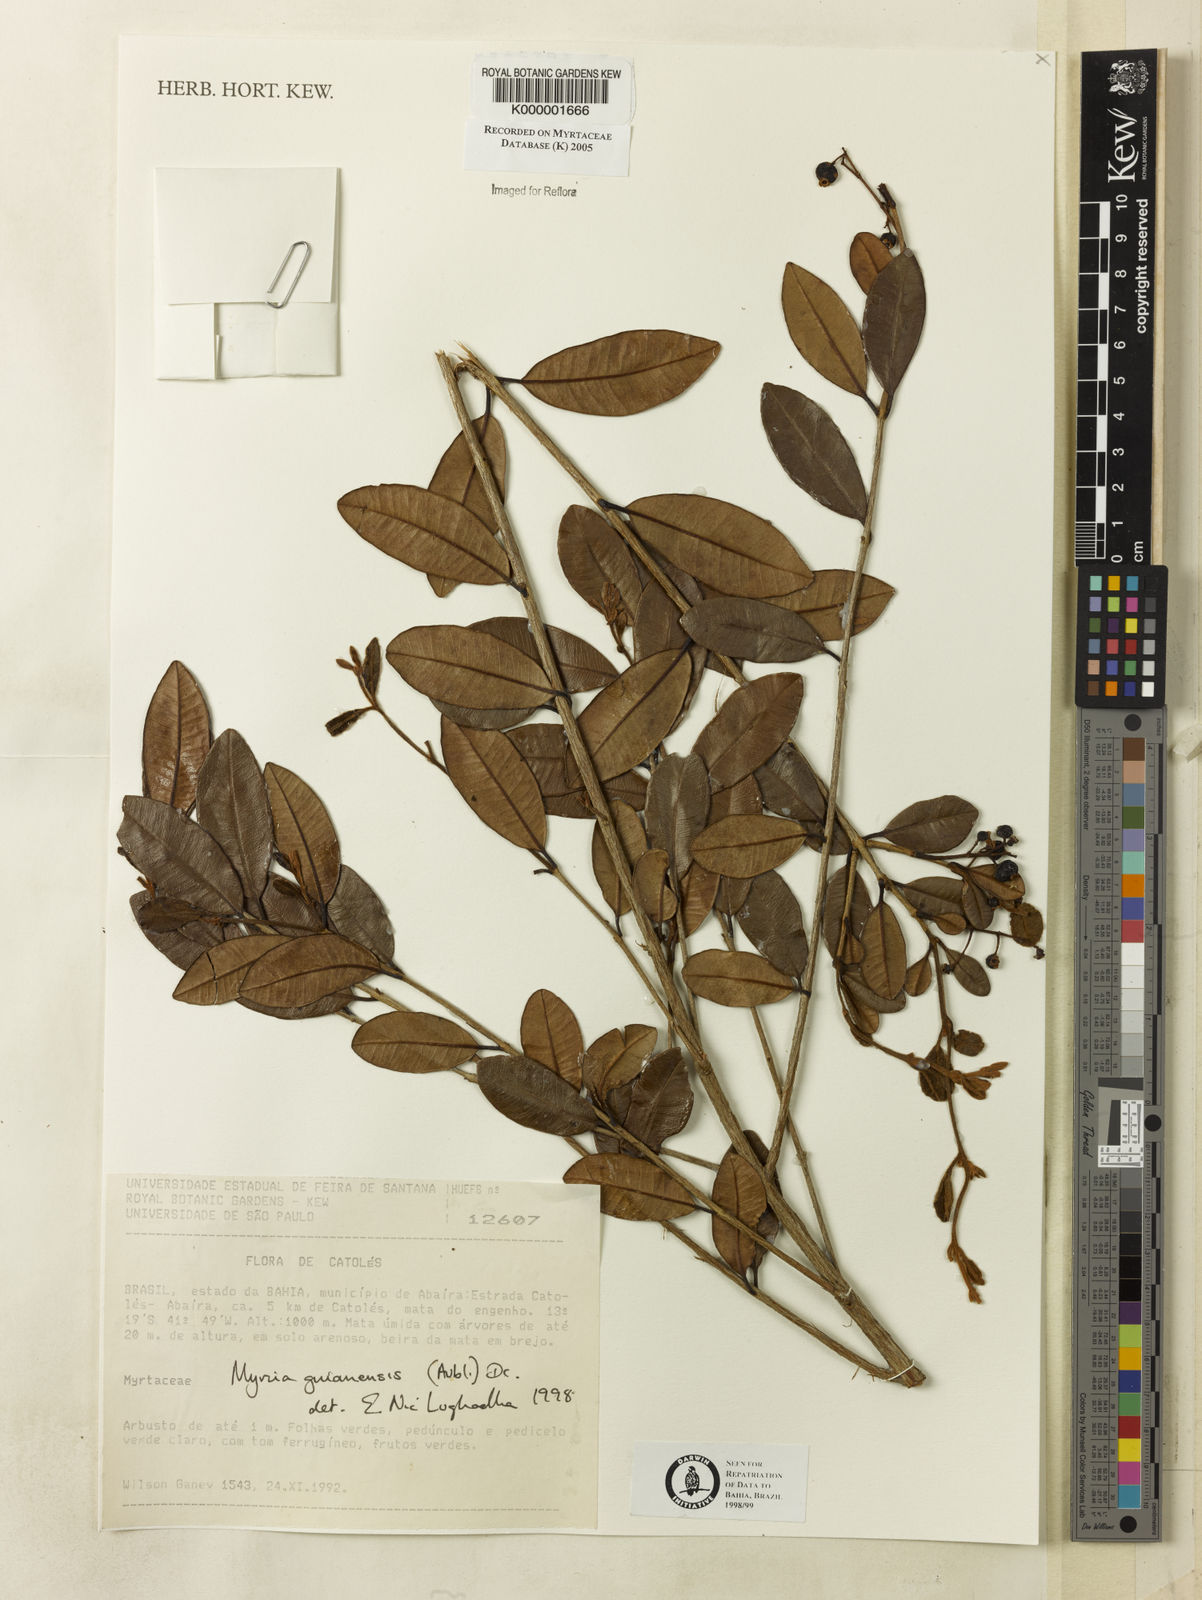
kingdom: Plantae
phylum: Tracheophyta
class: Magnoliopsida
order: Myrtales
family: Myrtaceae
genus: Myrcia
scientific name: Myrcia guianensis
